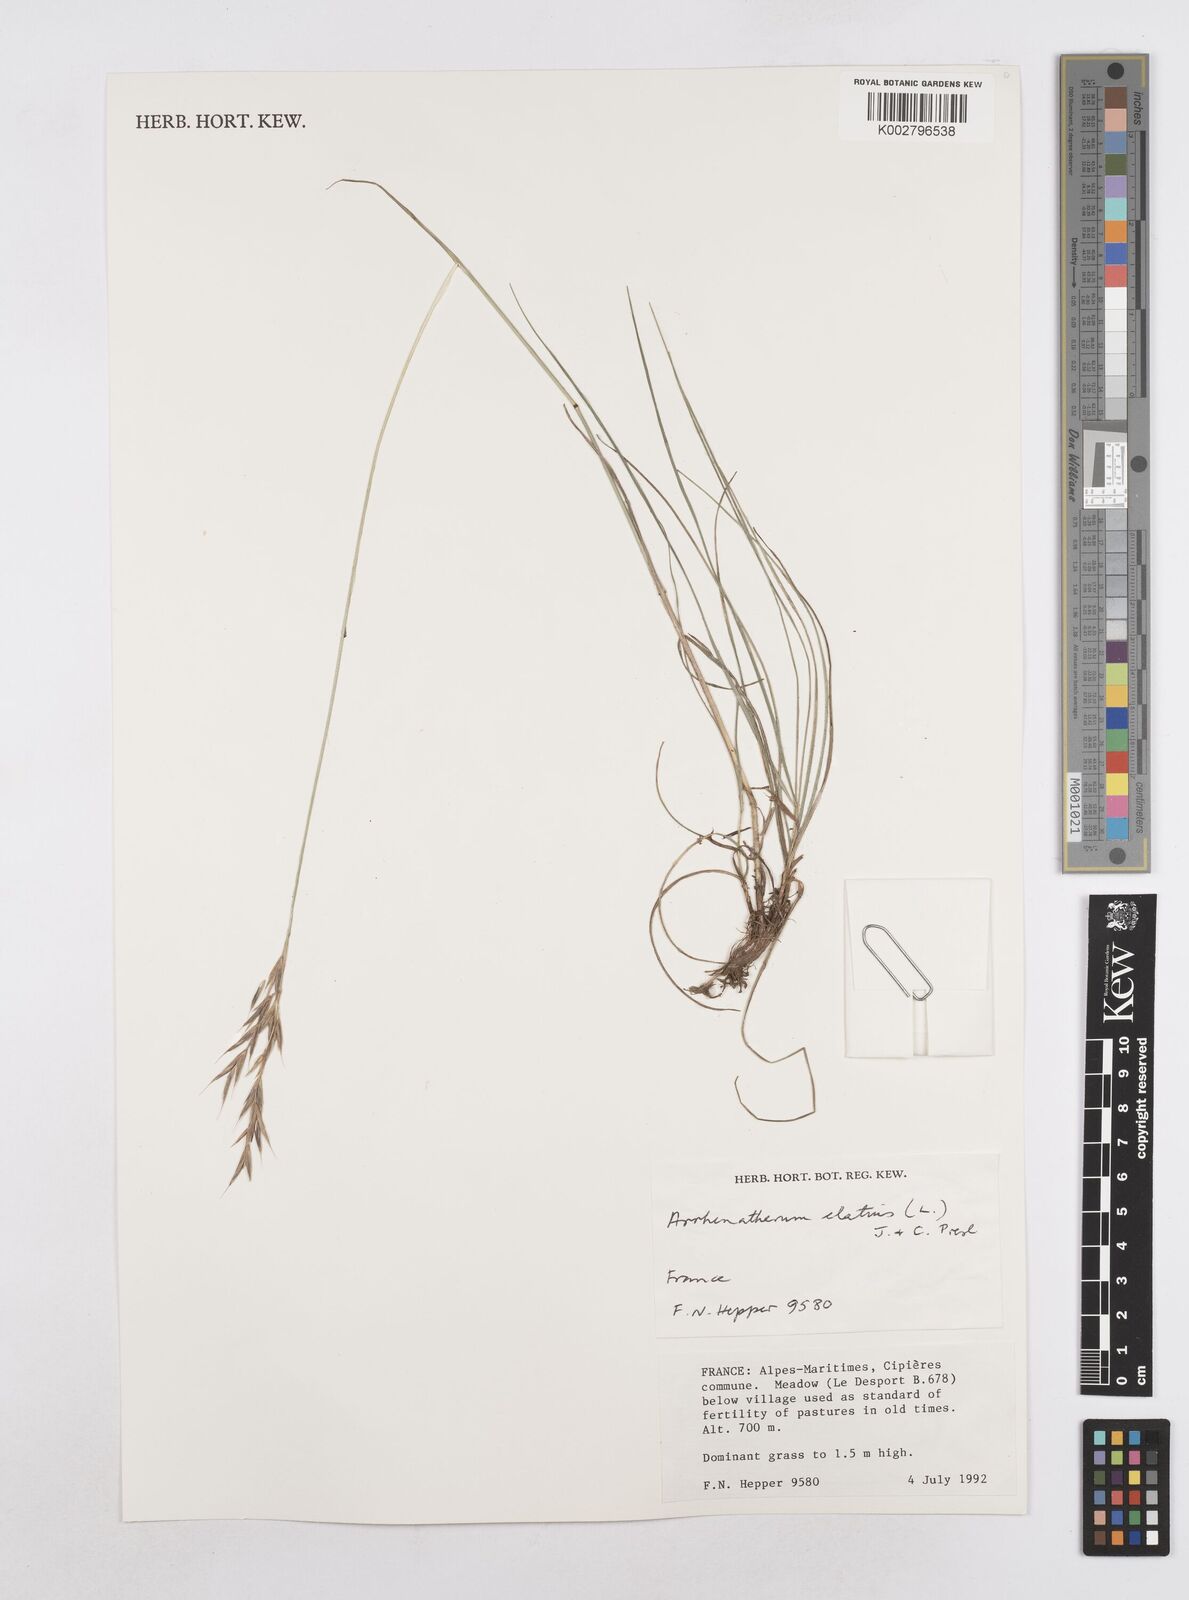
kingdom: Plantae
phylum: Tracheophyta
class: Liliopsida
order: Poales
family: Poaceae
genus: Arrhenatherum
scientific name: Arrhenatherum elatius
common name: Tall oatgrass
